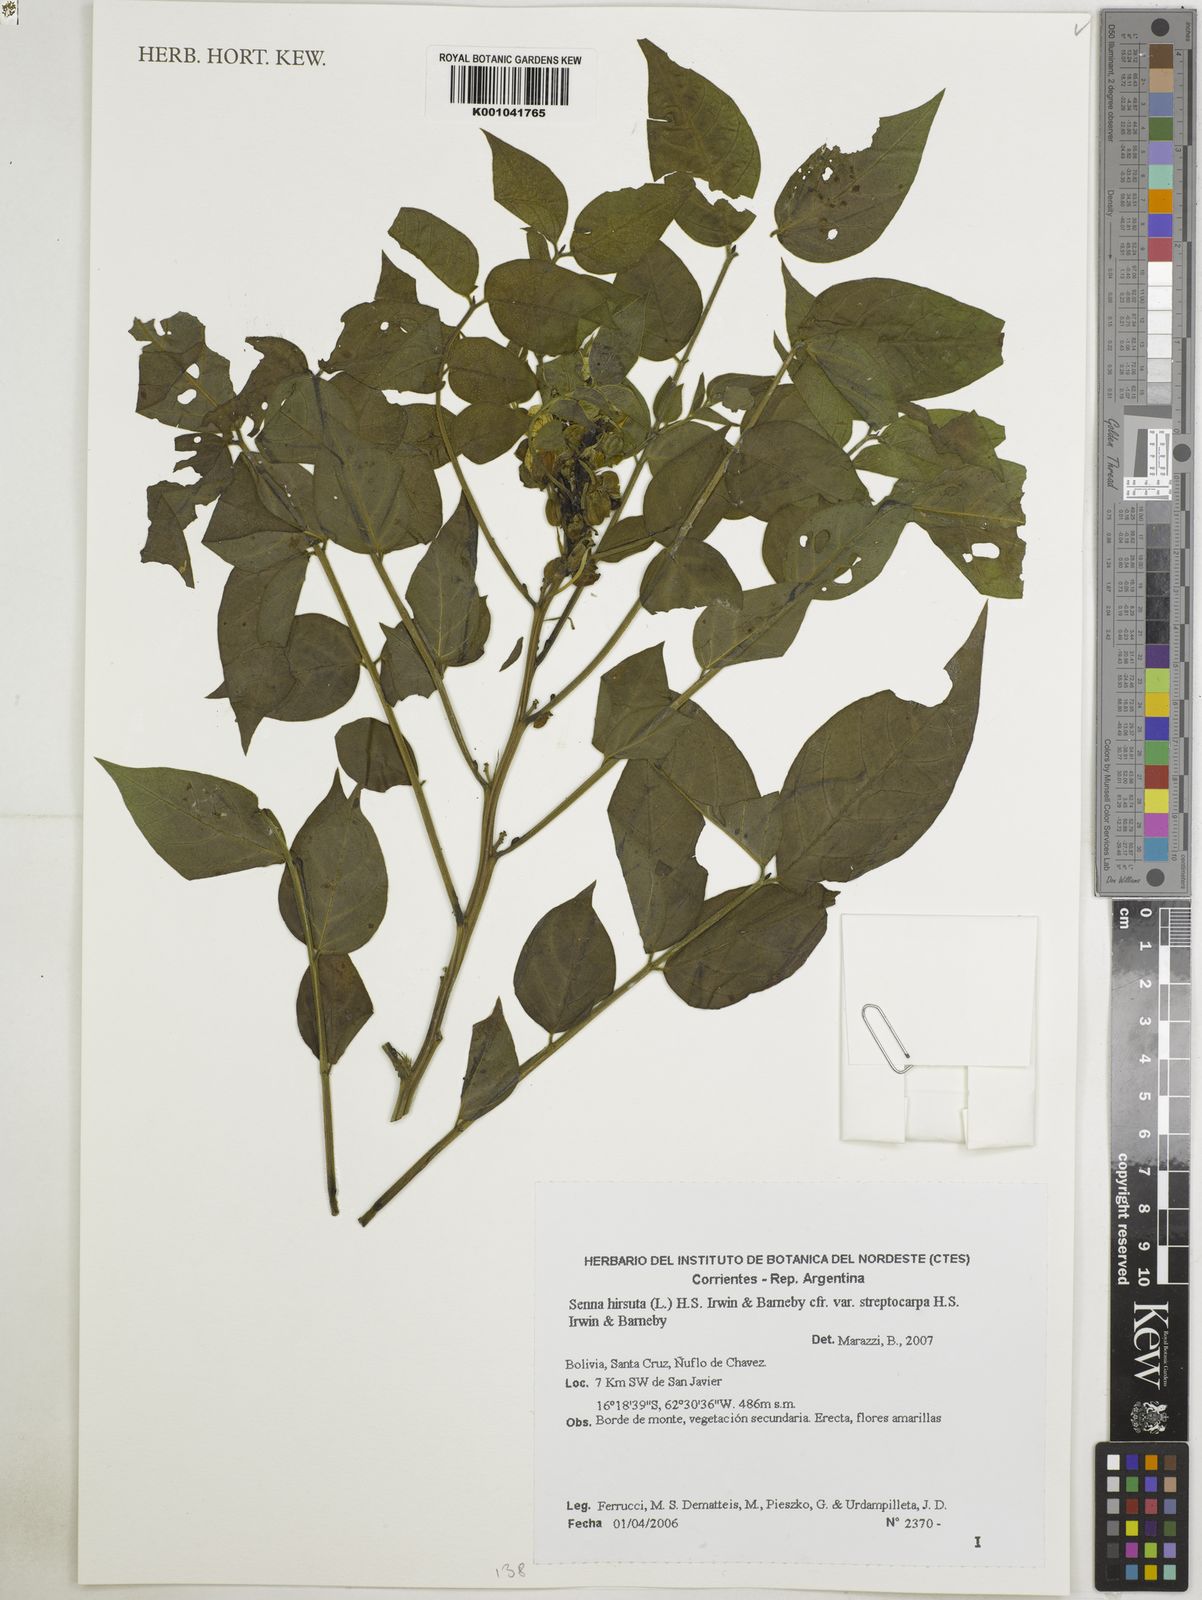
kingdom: Plantae
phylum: Tracheophyta
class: Magnoliopsida
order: Fabales
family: Fabaceae
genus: Senna
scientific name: Senna hirsuta
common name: Woolly senna
